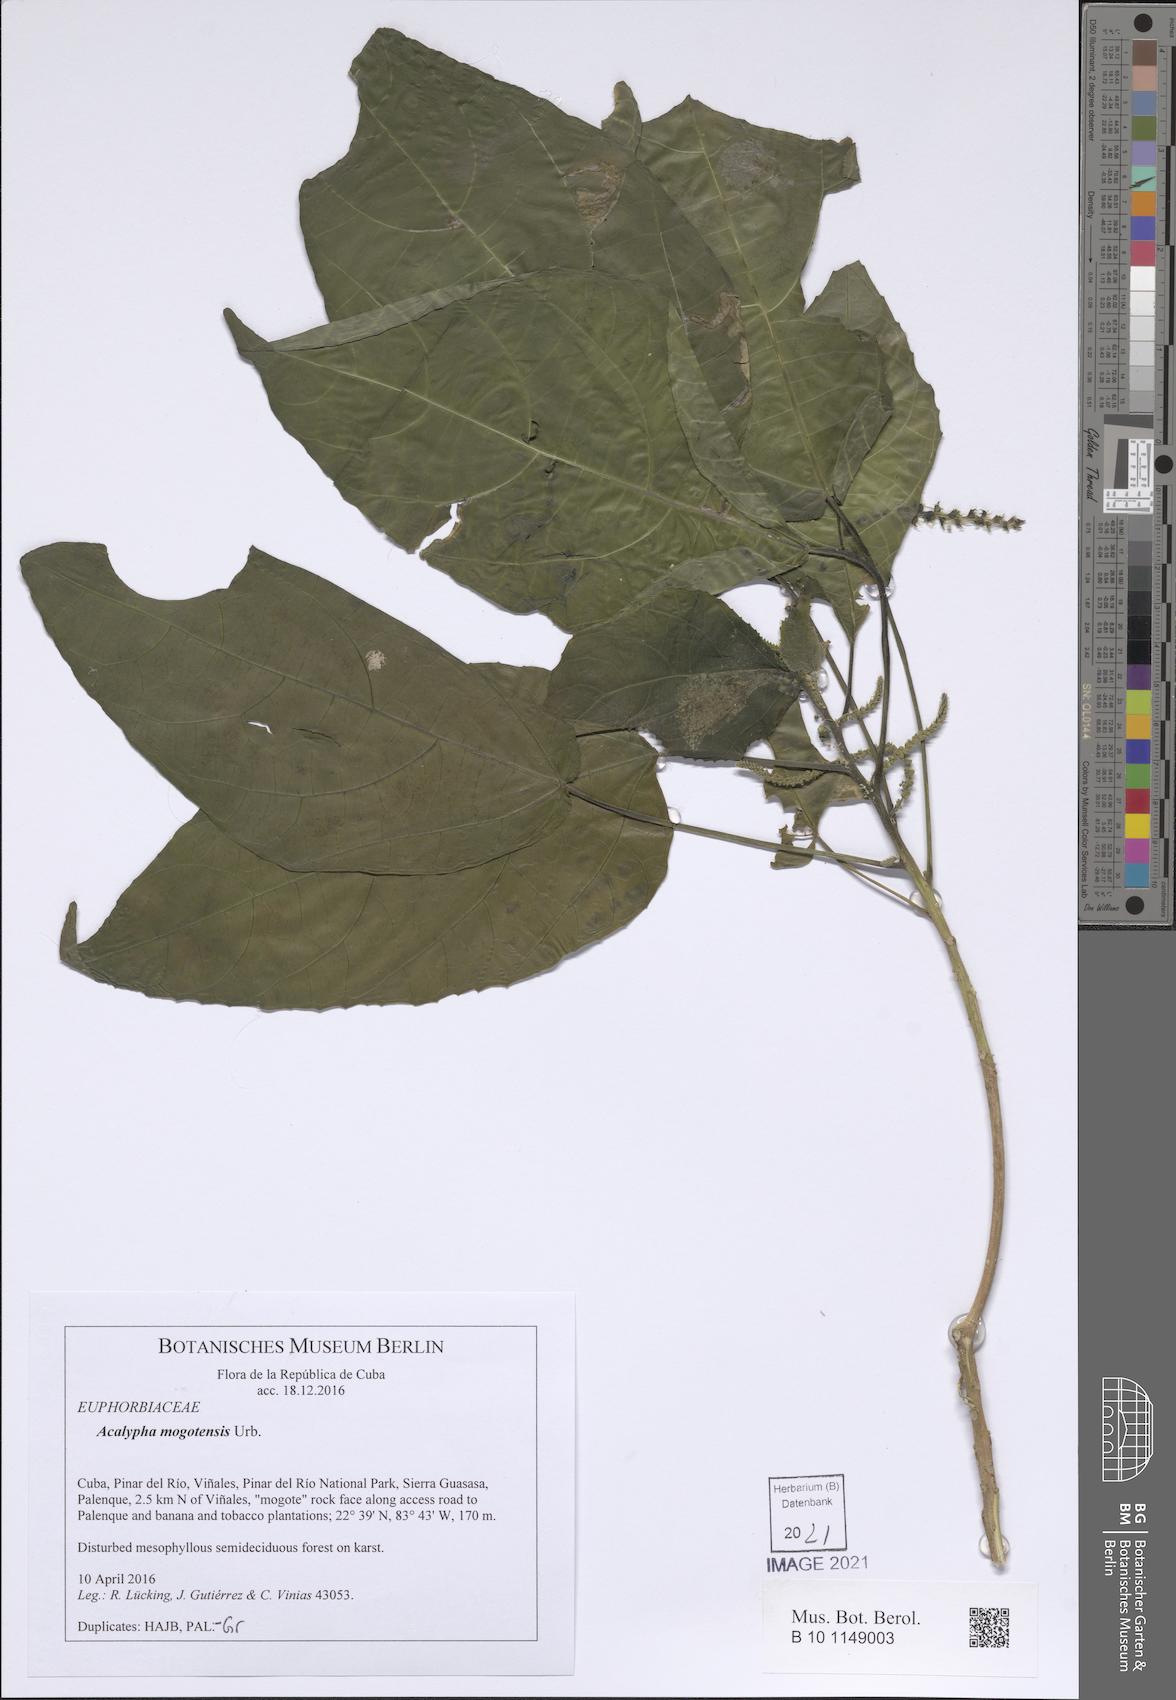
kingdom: Plantae
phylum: Tracheophyta
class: Magnoliopsida
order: Malpighiales
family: Euphorbiaceae
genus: Acalypha
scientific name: Acalypha membranacea
